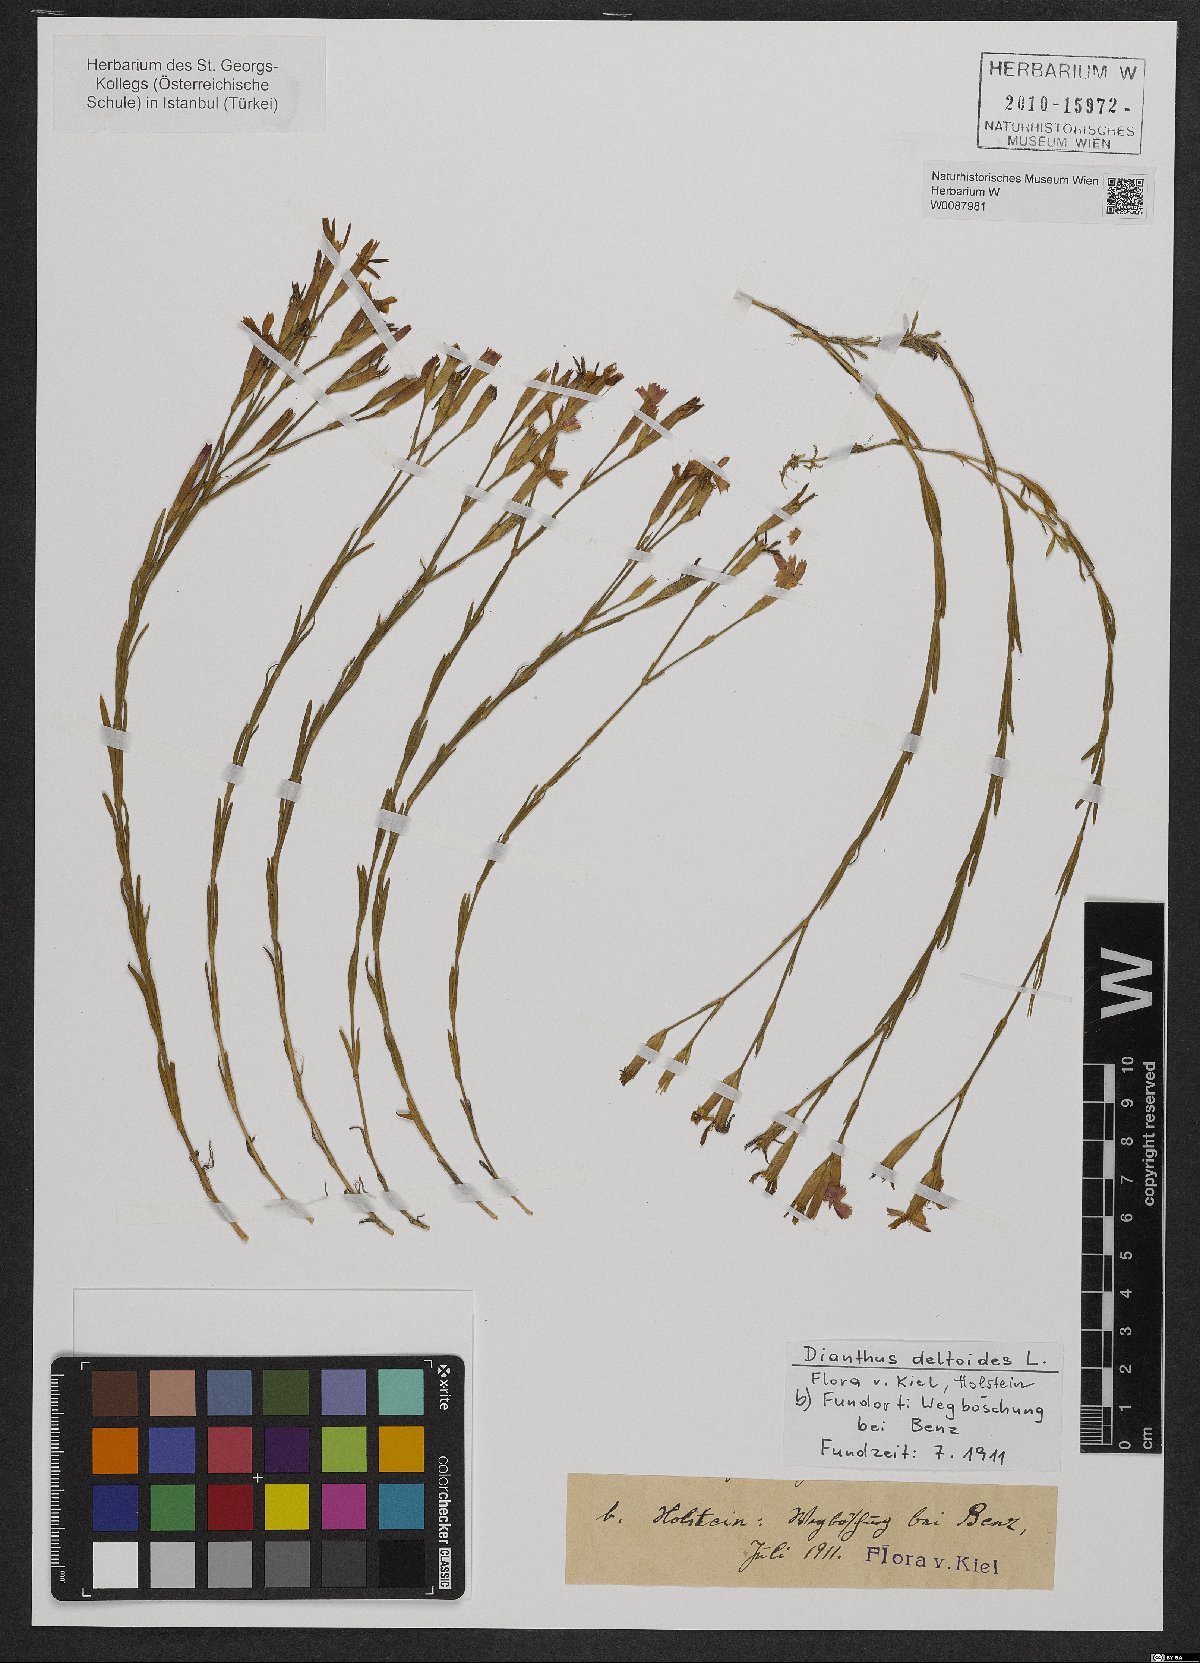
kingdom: Plantae
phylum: Tracheophyta
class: Magnoliopsida
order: Caryophyllales
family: Caryophyllaceae
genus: Dianthus
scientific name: Dianthus deltoides
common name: Maiden pink
